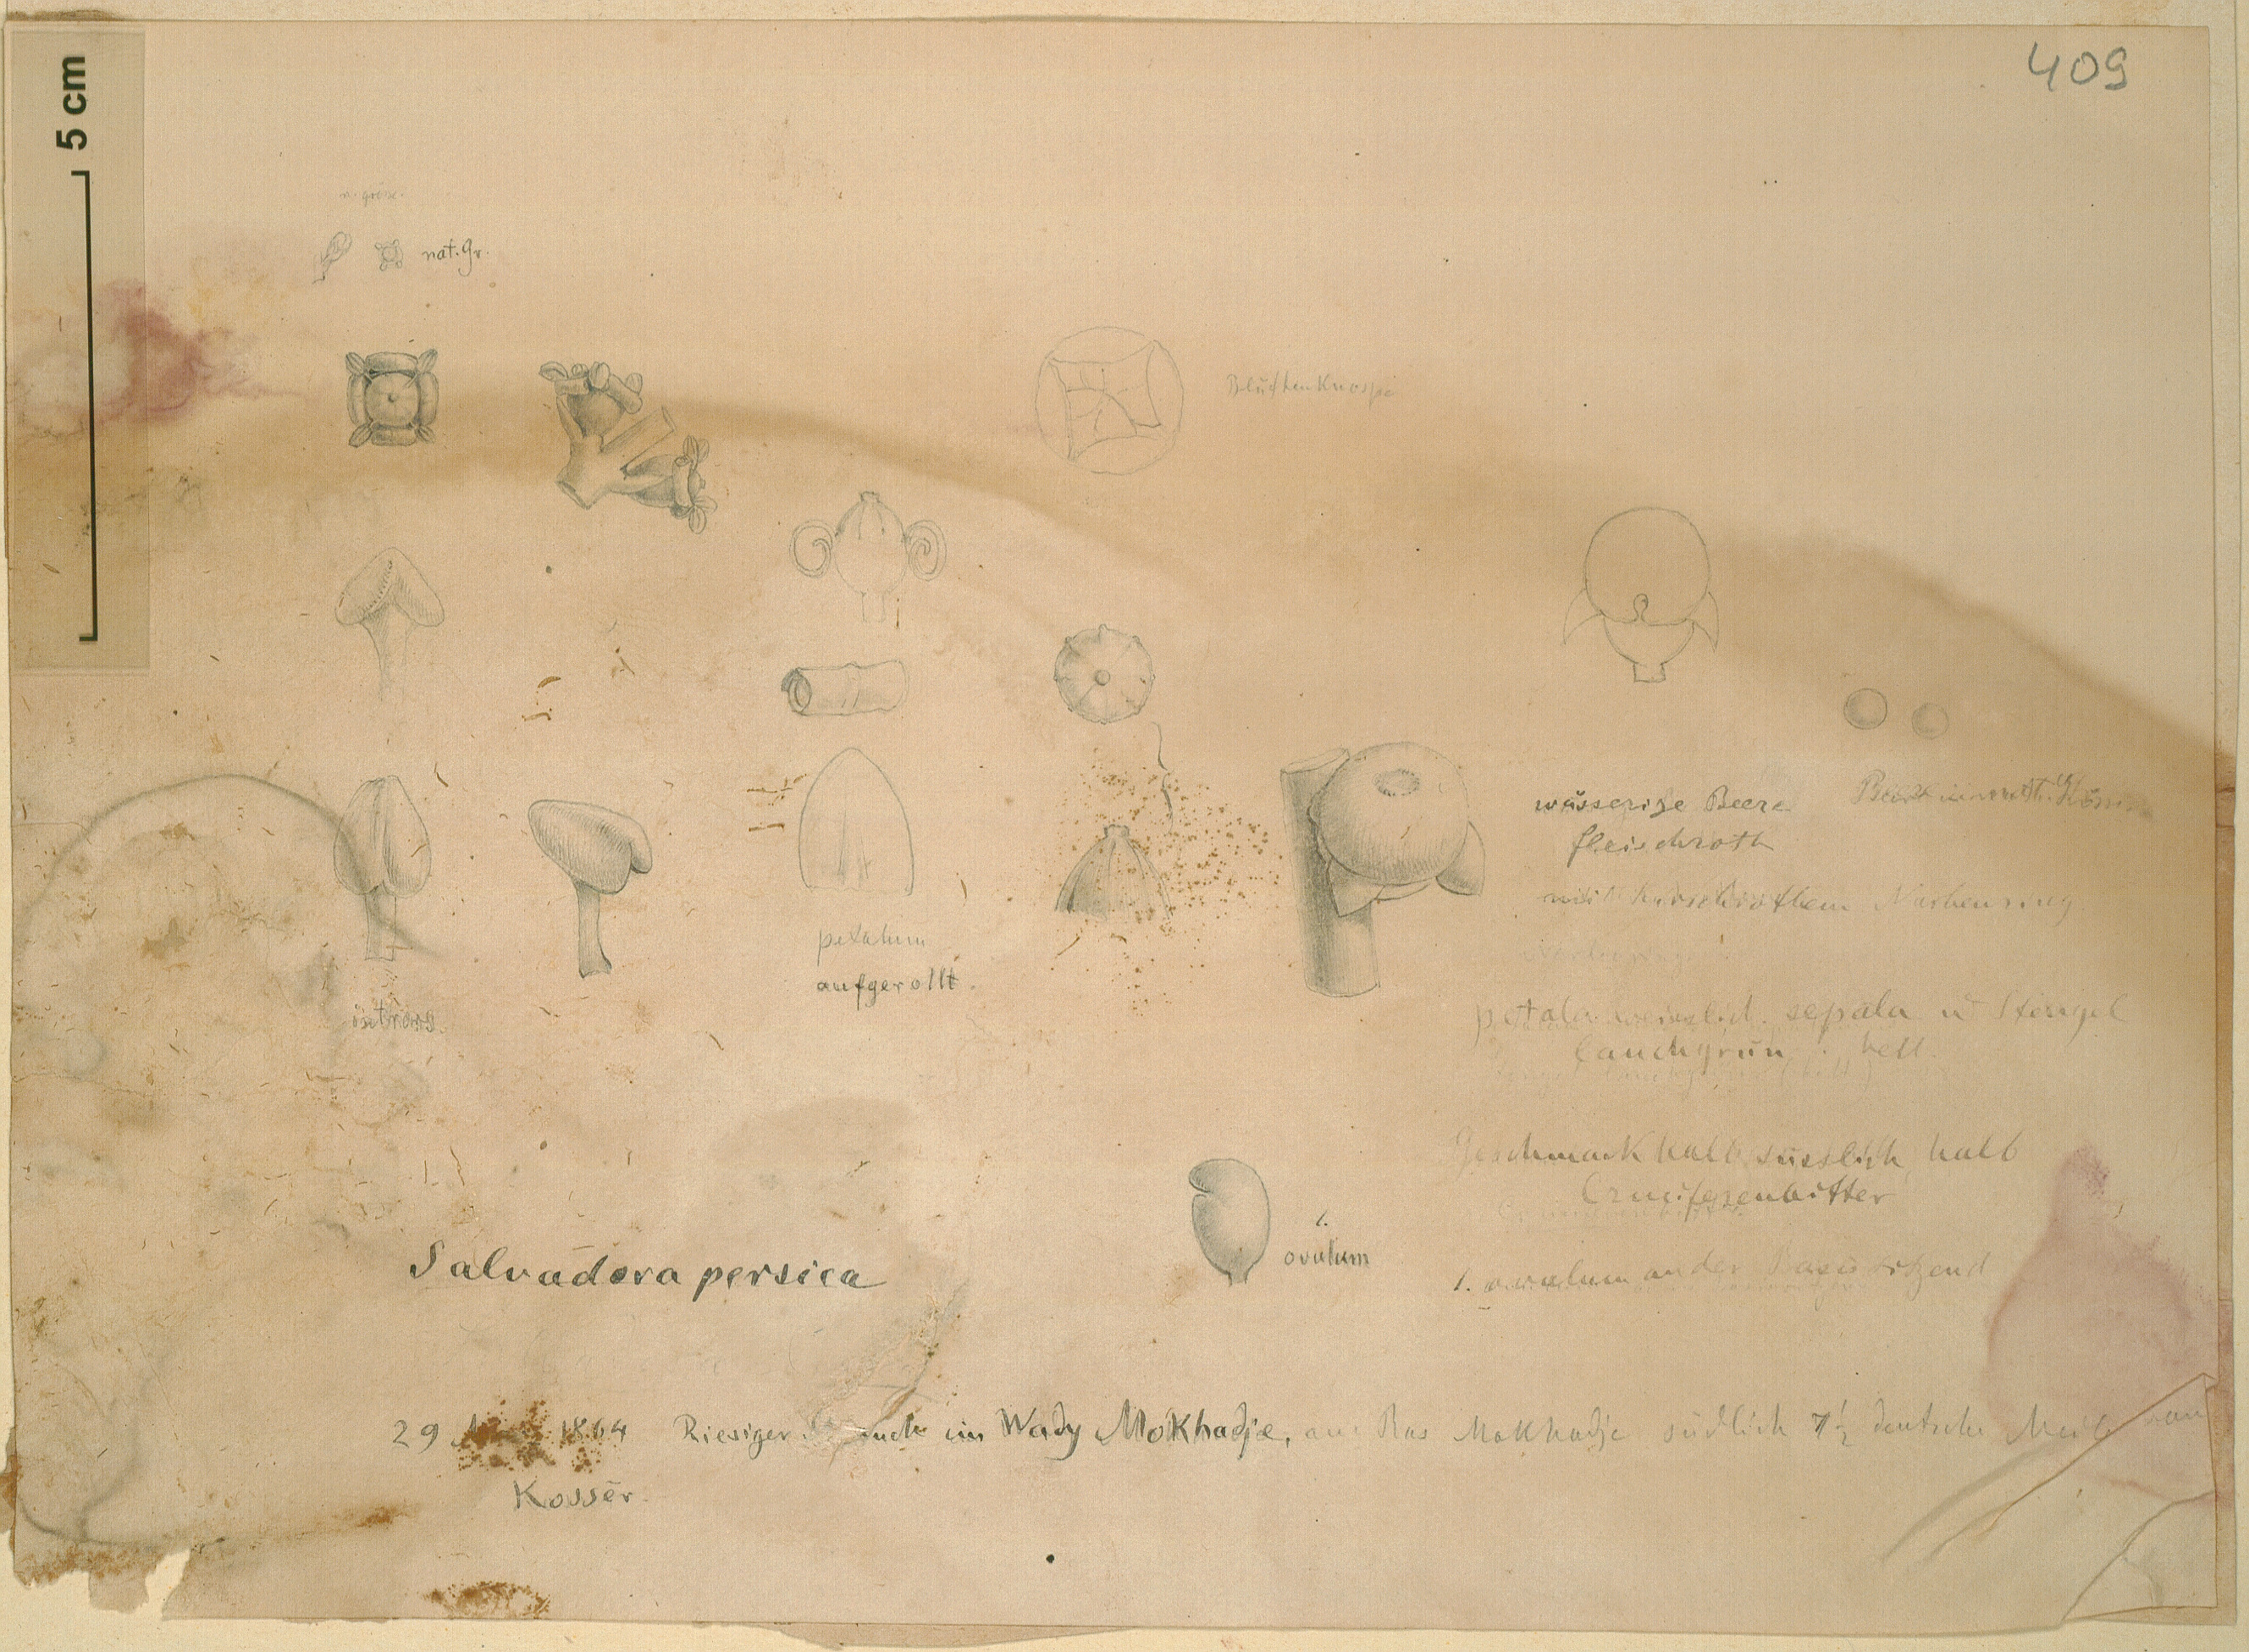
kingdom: Plantae
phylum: Tracheophyta
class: Magnoliopsida
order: Brassicales
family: Salvadoraceae
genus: Salvadora
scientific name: Salvadora persica
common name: Toothbrushtree
